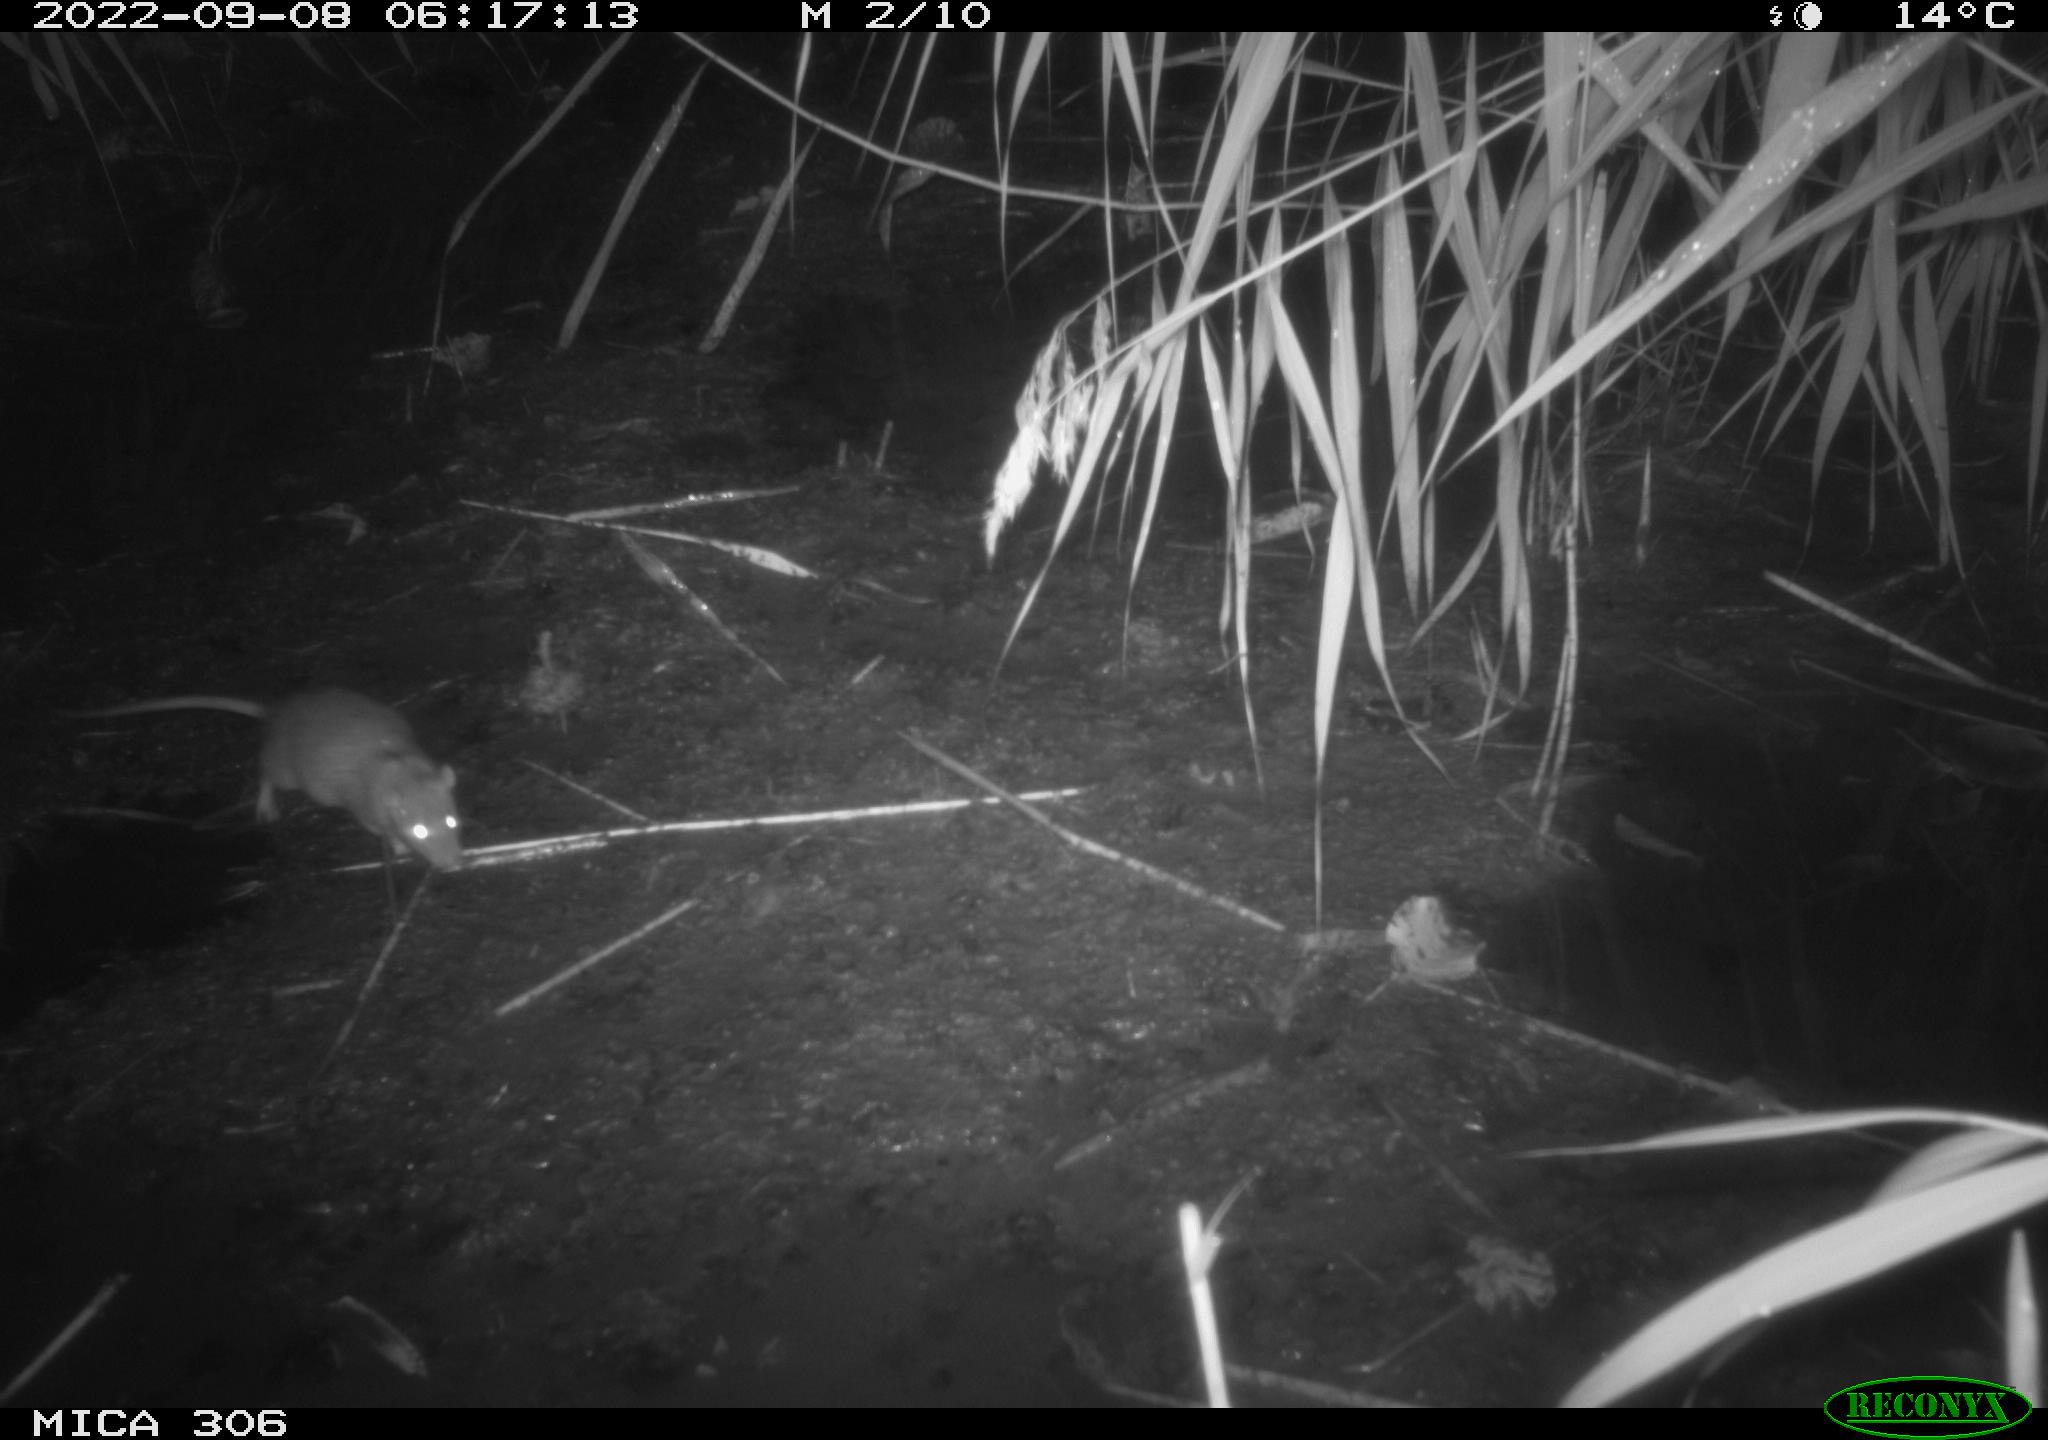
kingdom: Animalia
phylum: Chordata
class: Mammalia
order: Rodentia
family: Muridae
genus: Rattus
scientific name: Rattus norvegicus
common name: Brown rat
